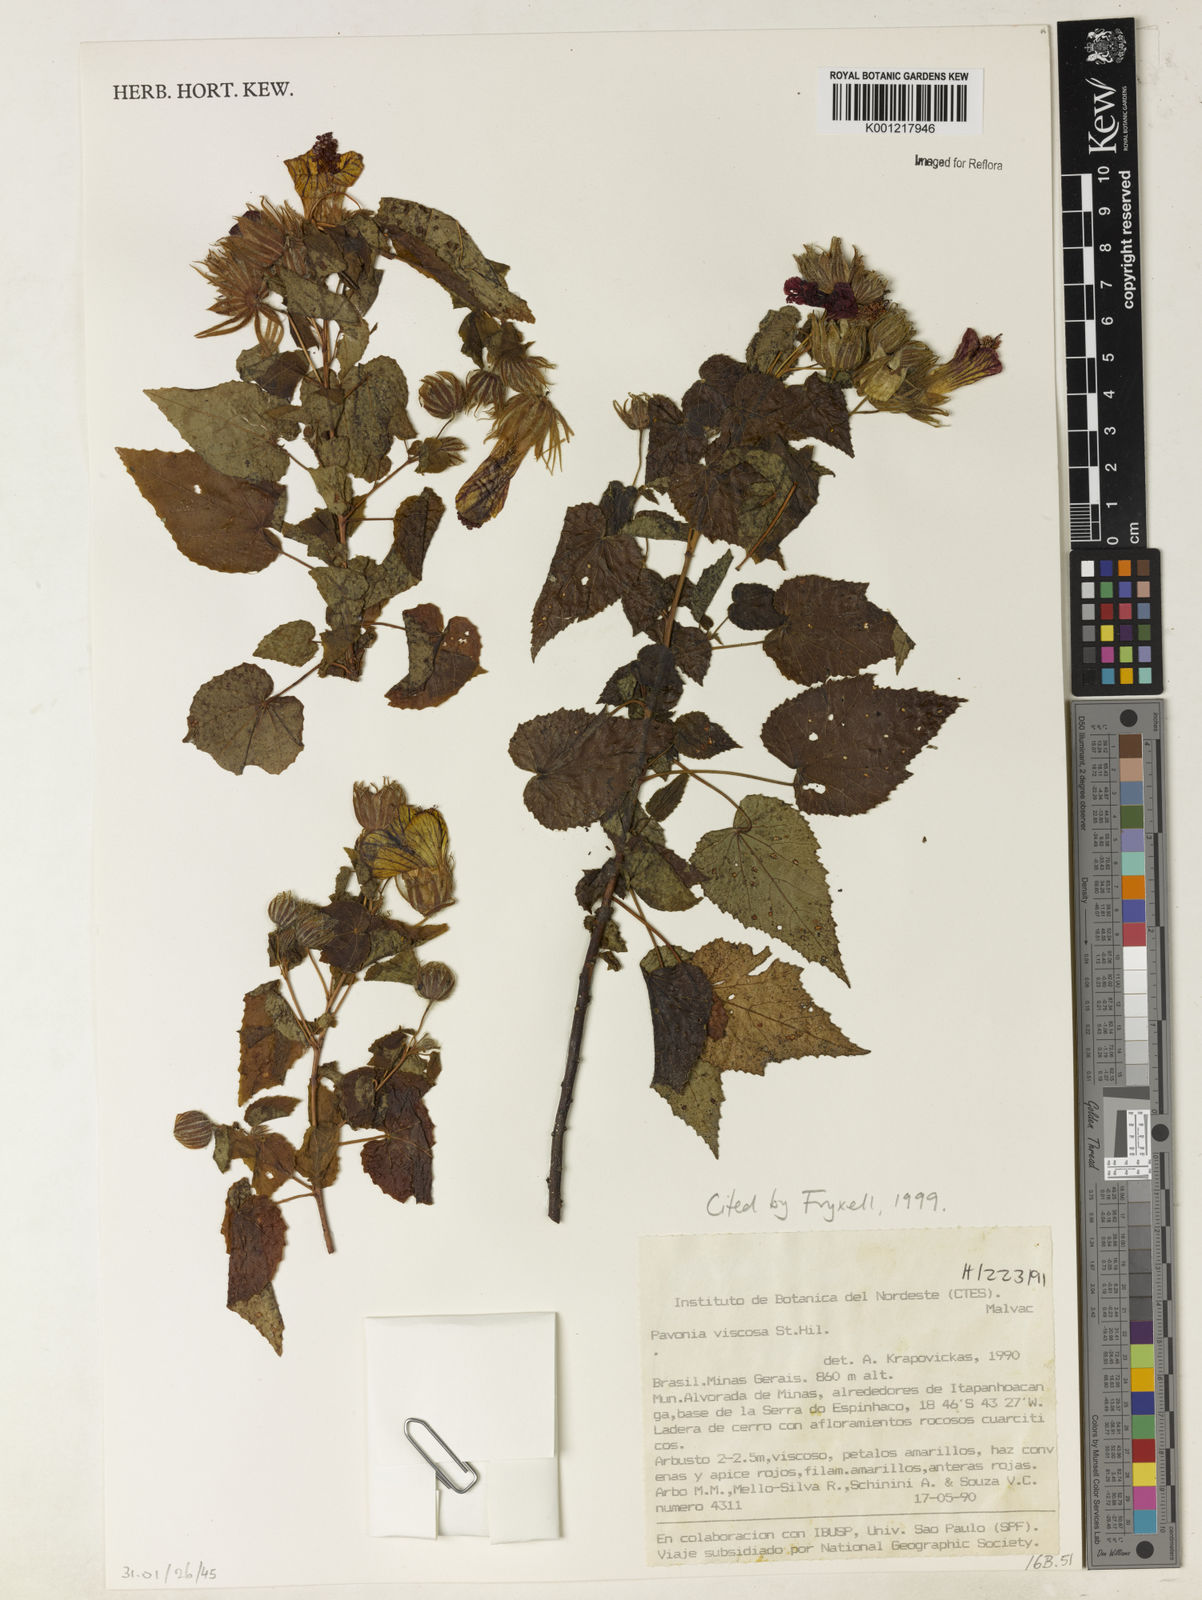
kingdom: Plantae
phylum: Tracheophyta
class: Magnoliopsida
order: Malvales
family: Malvaceae
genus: Pavonia
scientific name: Pavonia viscosa
